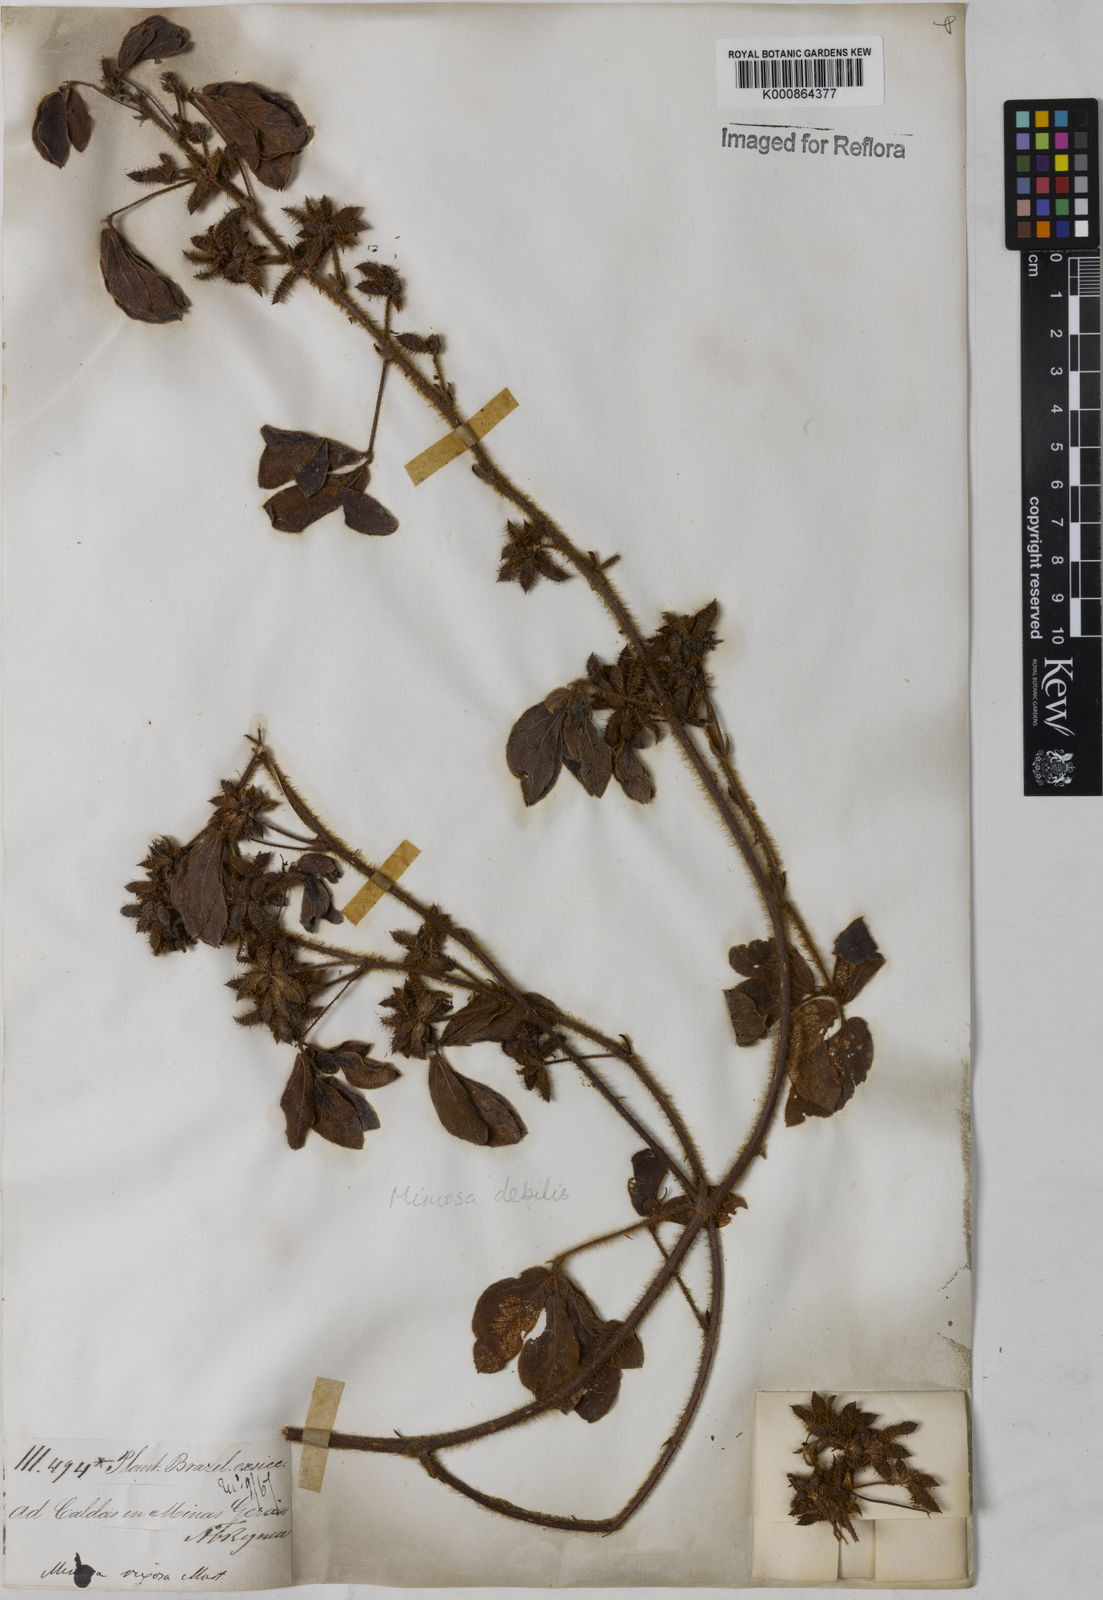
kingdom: Plantae
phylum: Tracheophyta
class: Magnoliopsida
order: Fabales
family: Fabaceae
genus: Mimosa
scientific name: Mimosa
